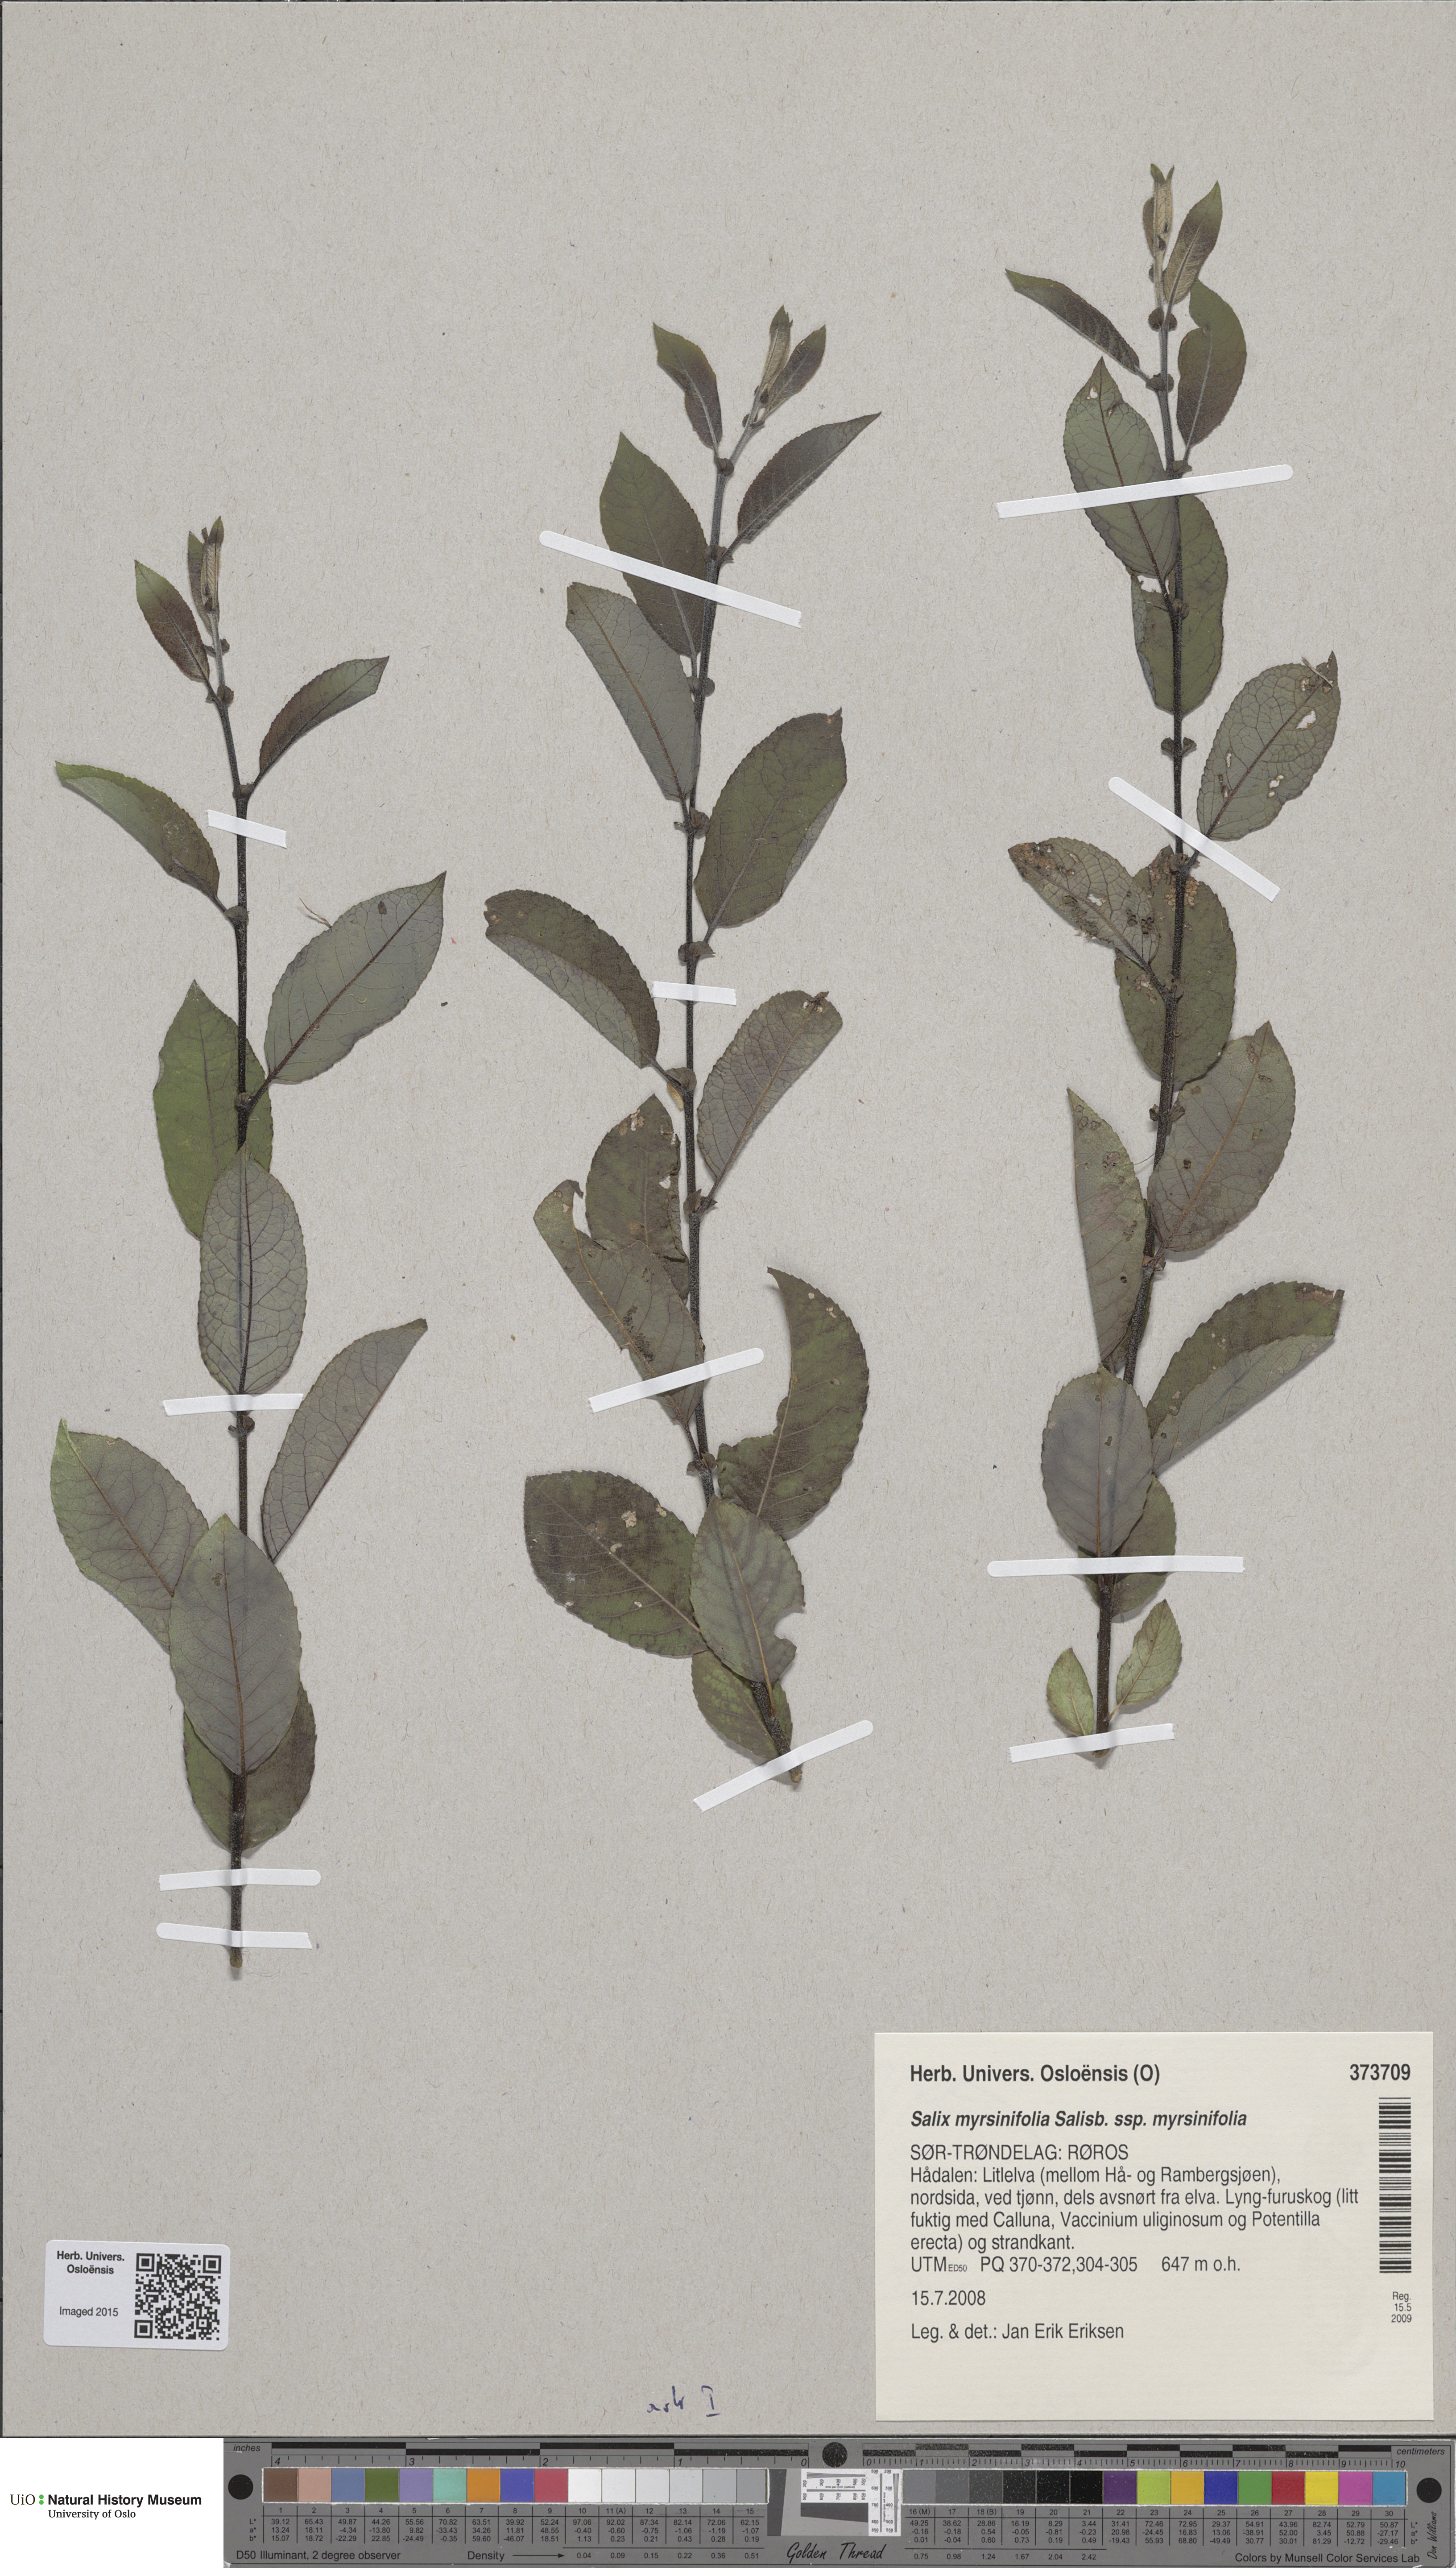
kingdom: Plantae
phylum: Tracheophyta
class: Magnoliopsida
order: Malpighiales
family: Salicaceae
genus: Salix
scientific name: Salix myrsinifolia
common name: Dark-leaved willow
